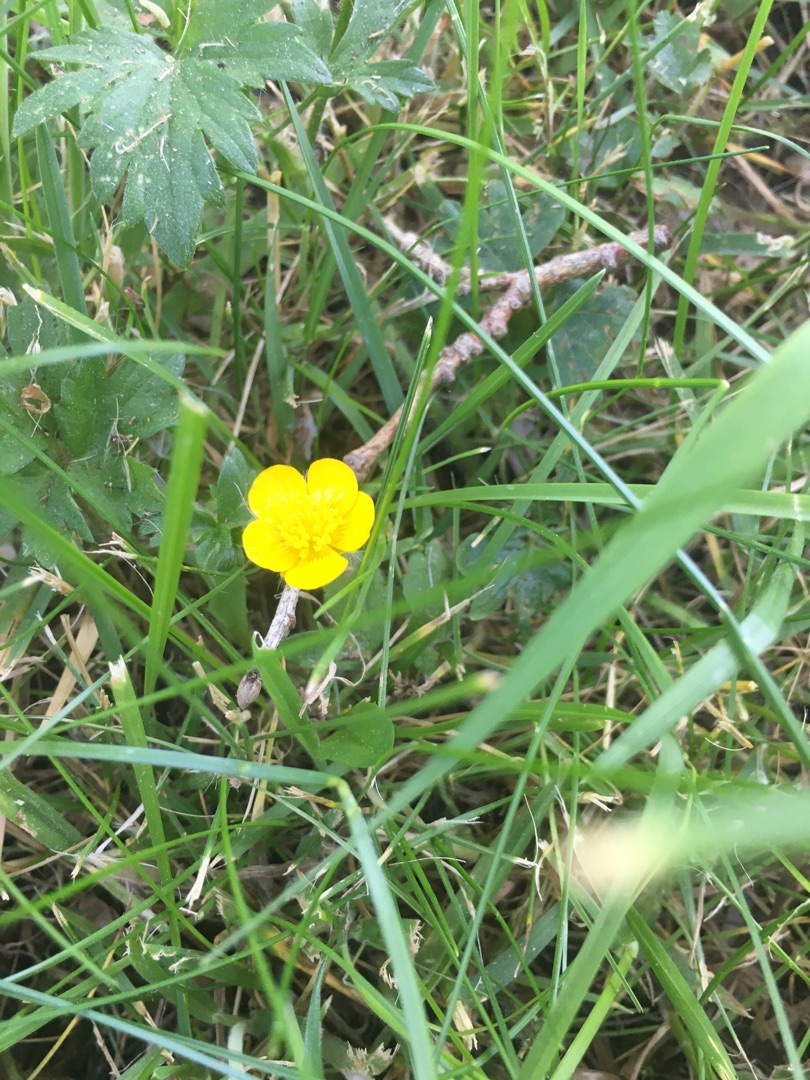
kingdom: Plantae
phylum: Tracheophyta
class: Magnoliopsida
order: Ranunculales
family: Ranunculaceae
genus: Ranunculus
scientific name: Ranunculus repens
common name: Lav ranunkel
